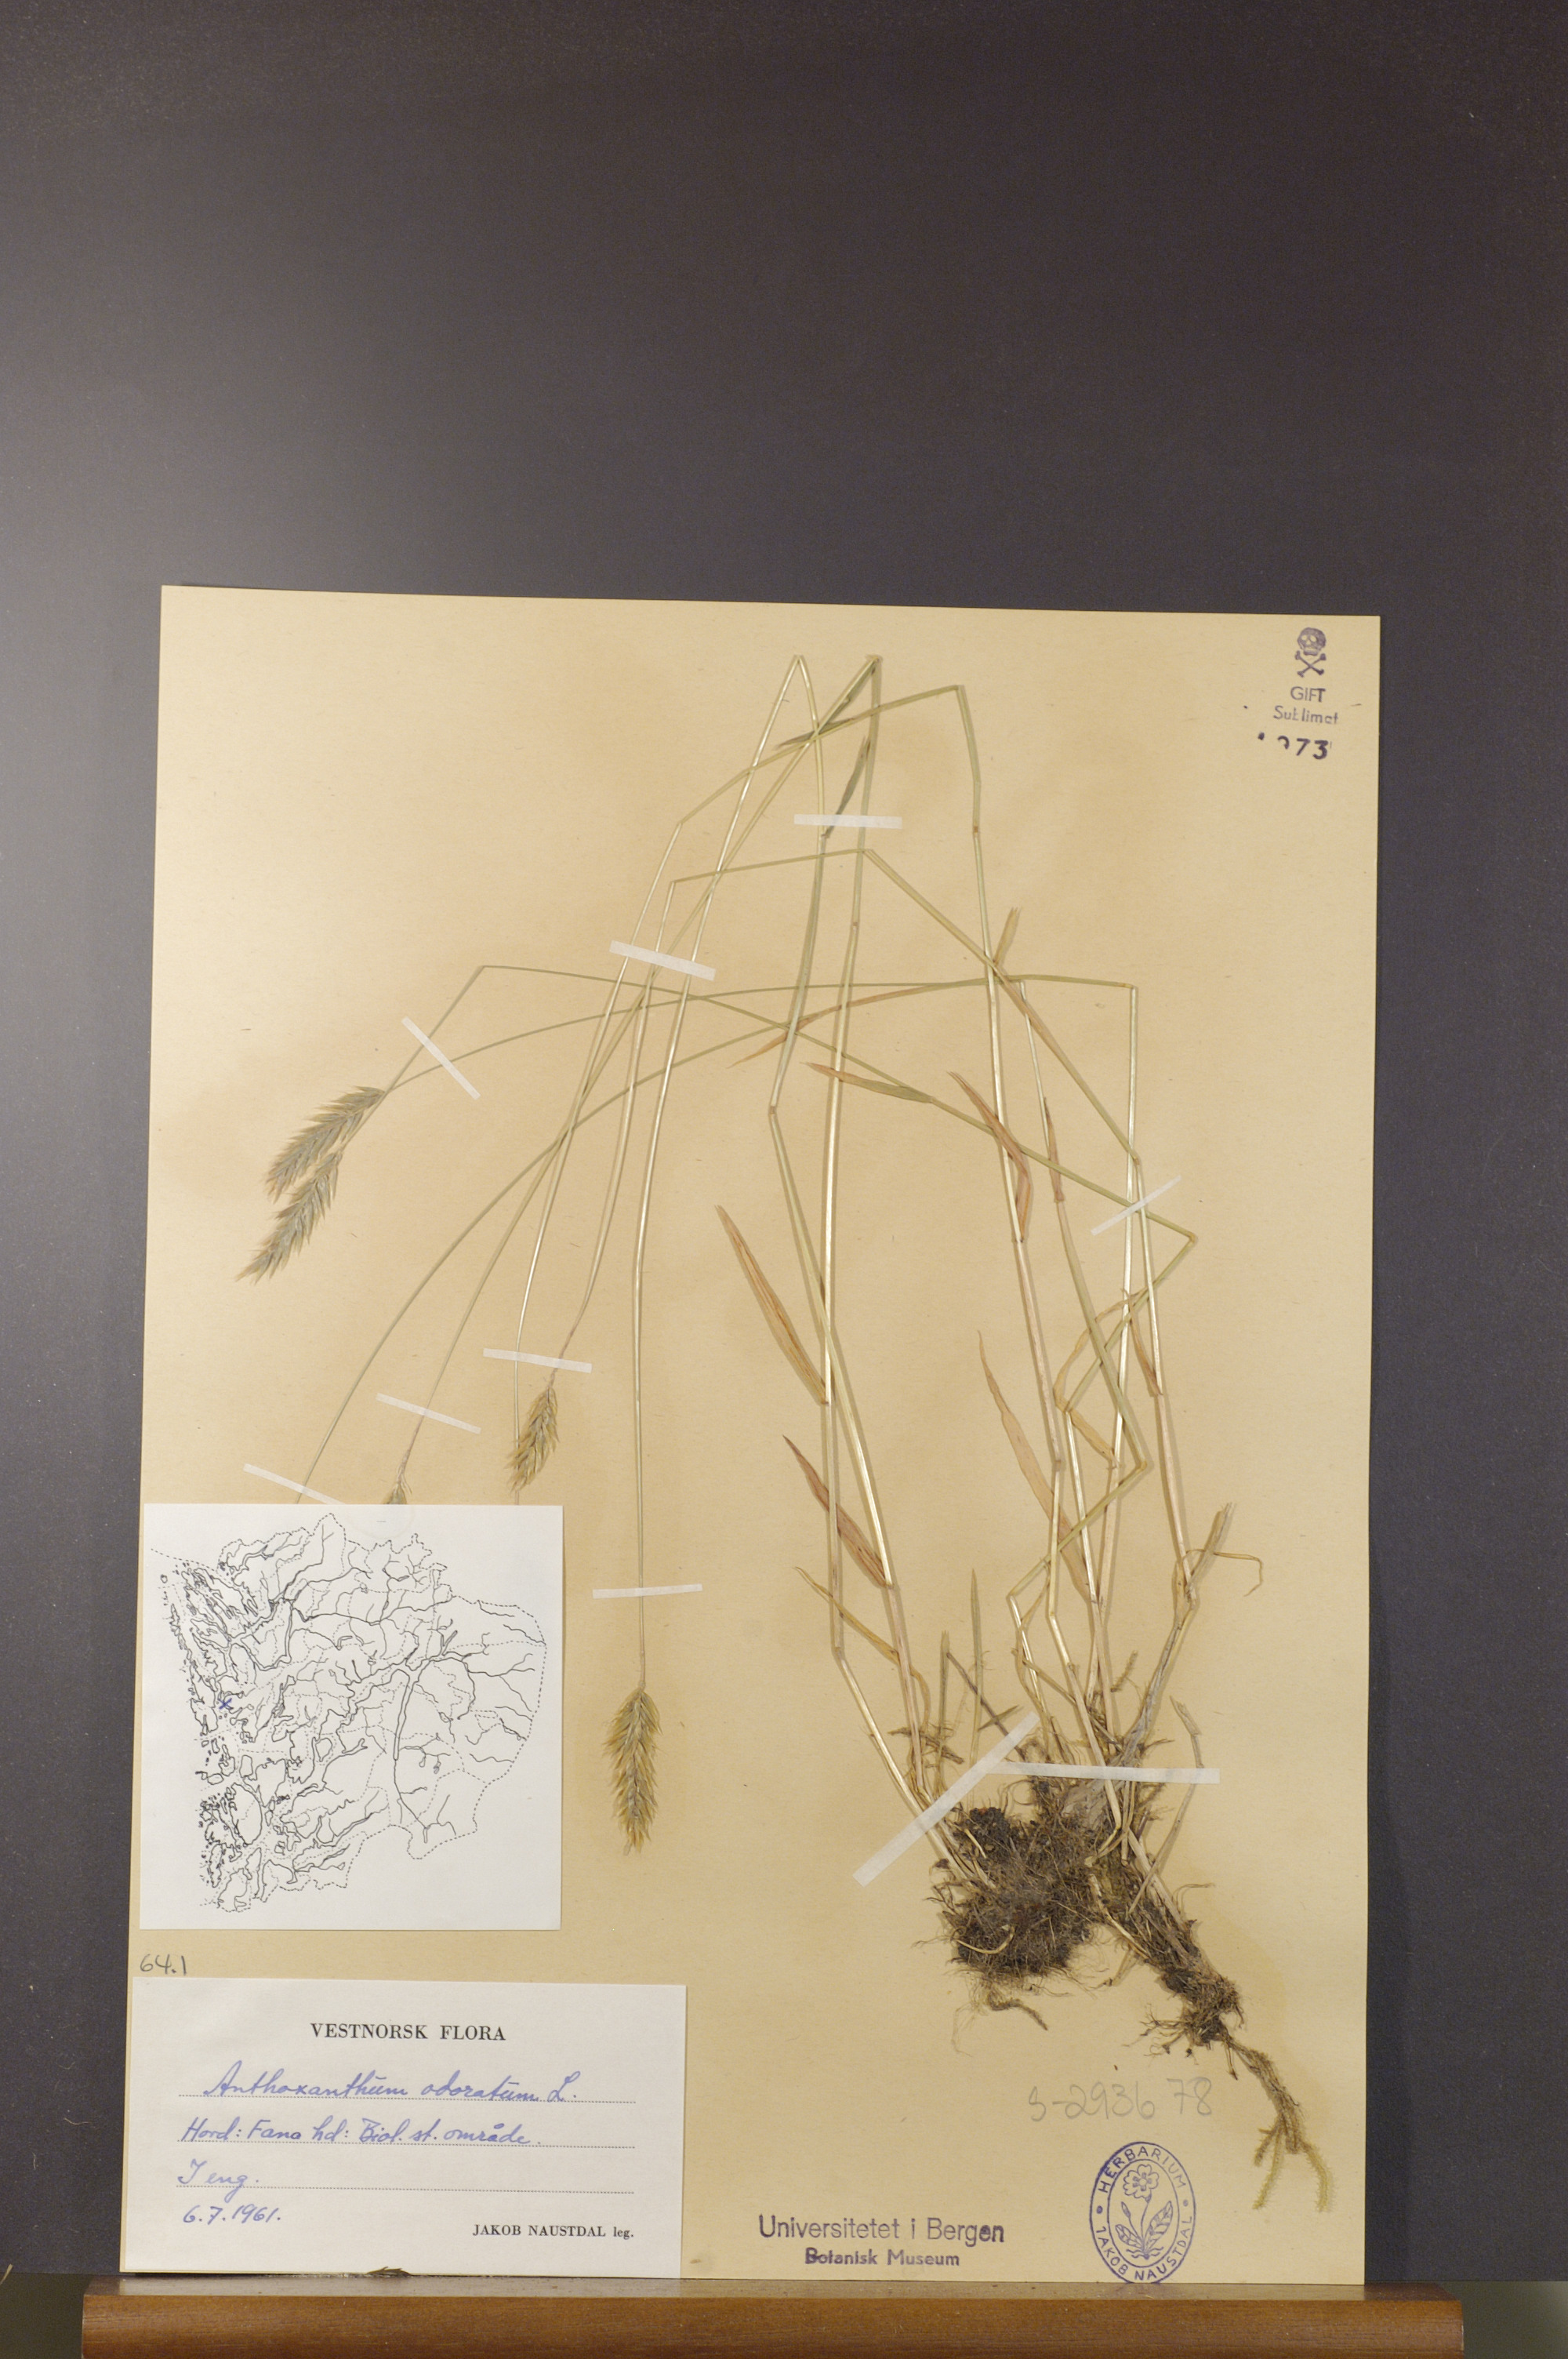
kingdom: Plantae
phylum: Tracheophyta
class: Liliopsida
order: Poales
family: Poaceae
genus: Anthoxanthum
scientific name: Anthoxanthum odoratum
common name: Sweet vernalgrass
